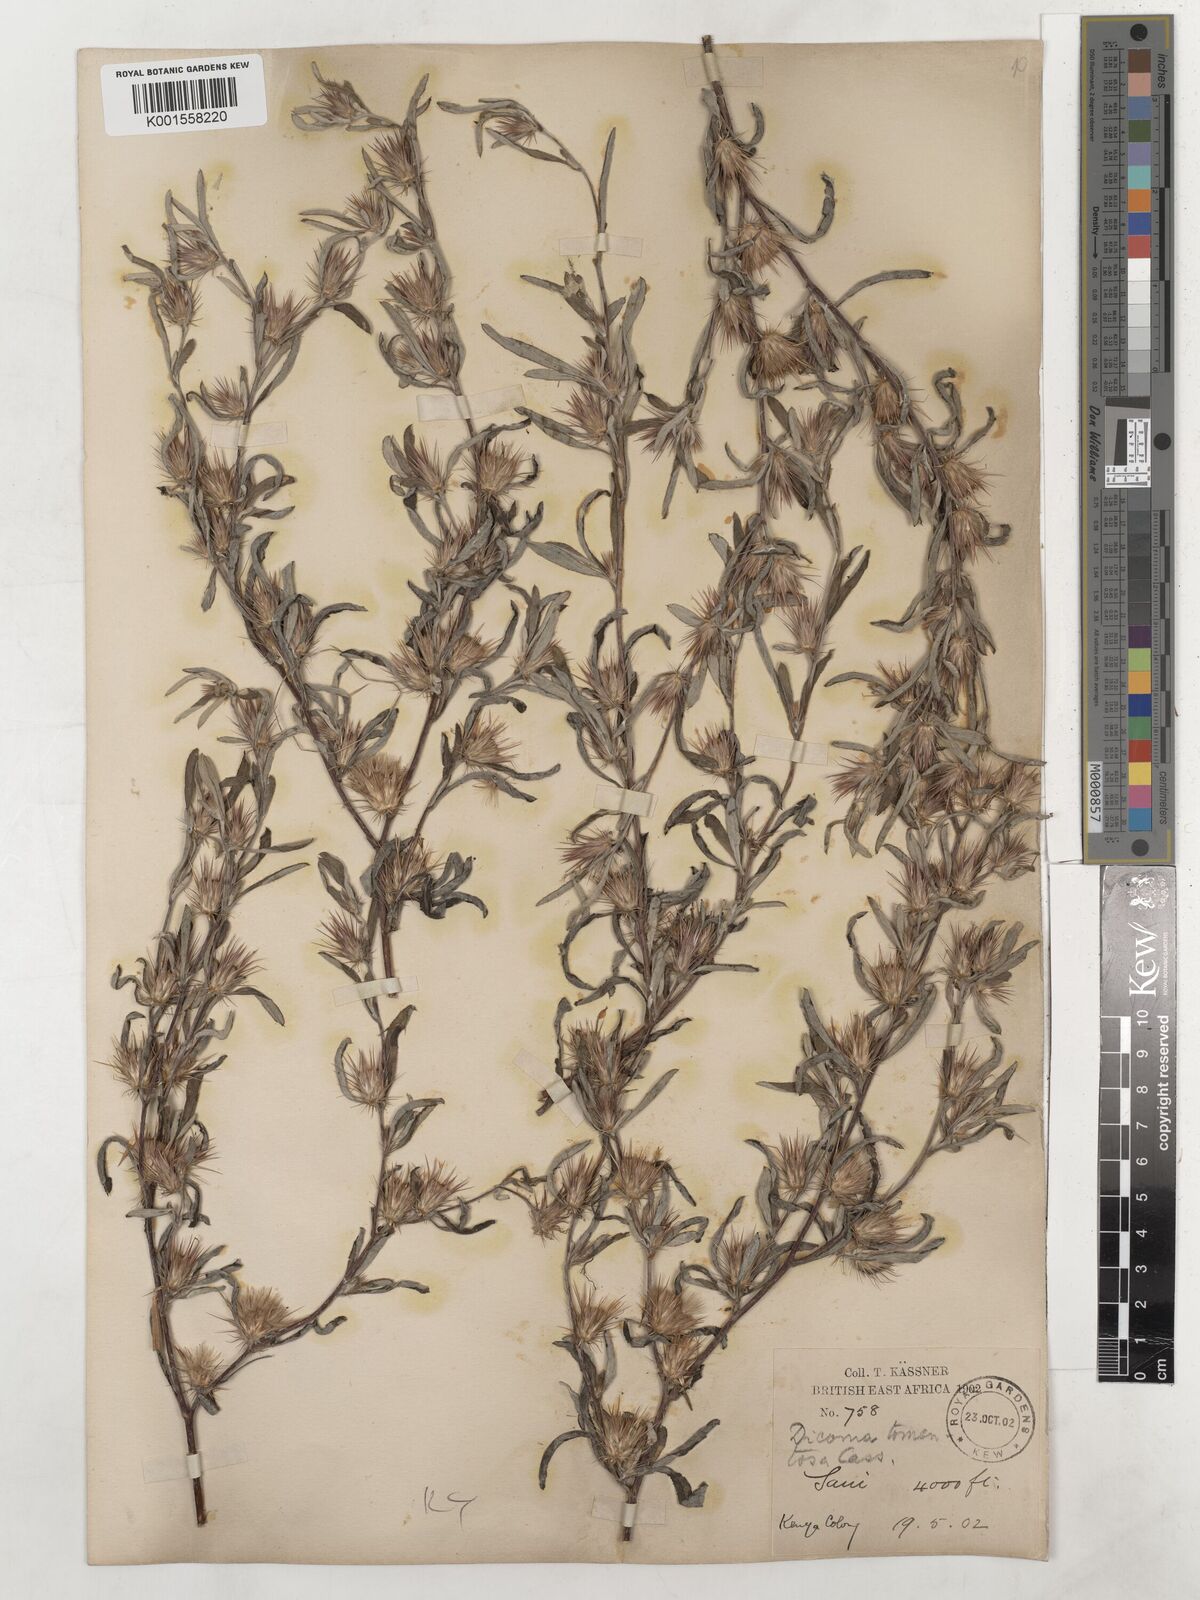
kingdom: Plantae
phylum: Tracheophyta
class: Magnoliopsida
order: Asterales
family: Asteraceae
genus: Dicoma
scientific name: Dicoma tomentosa
